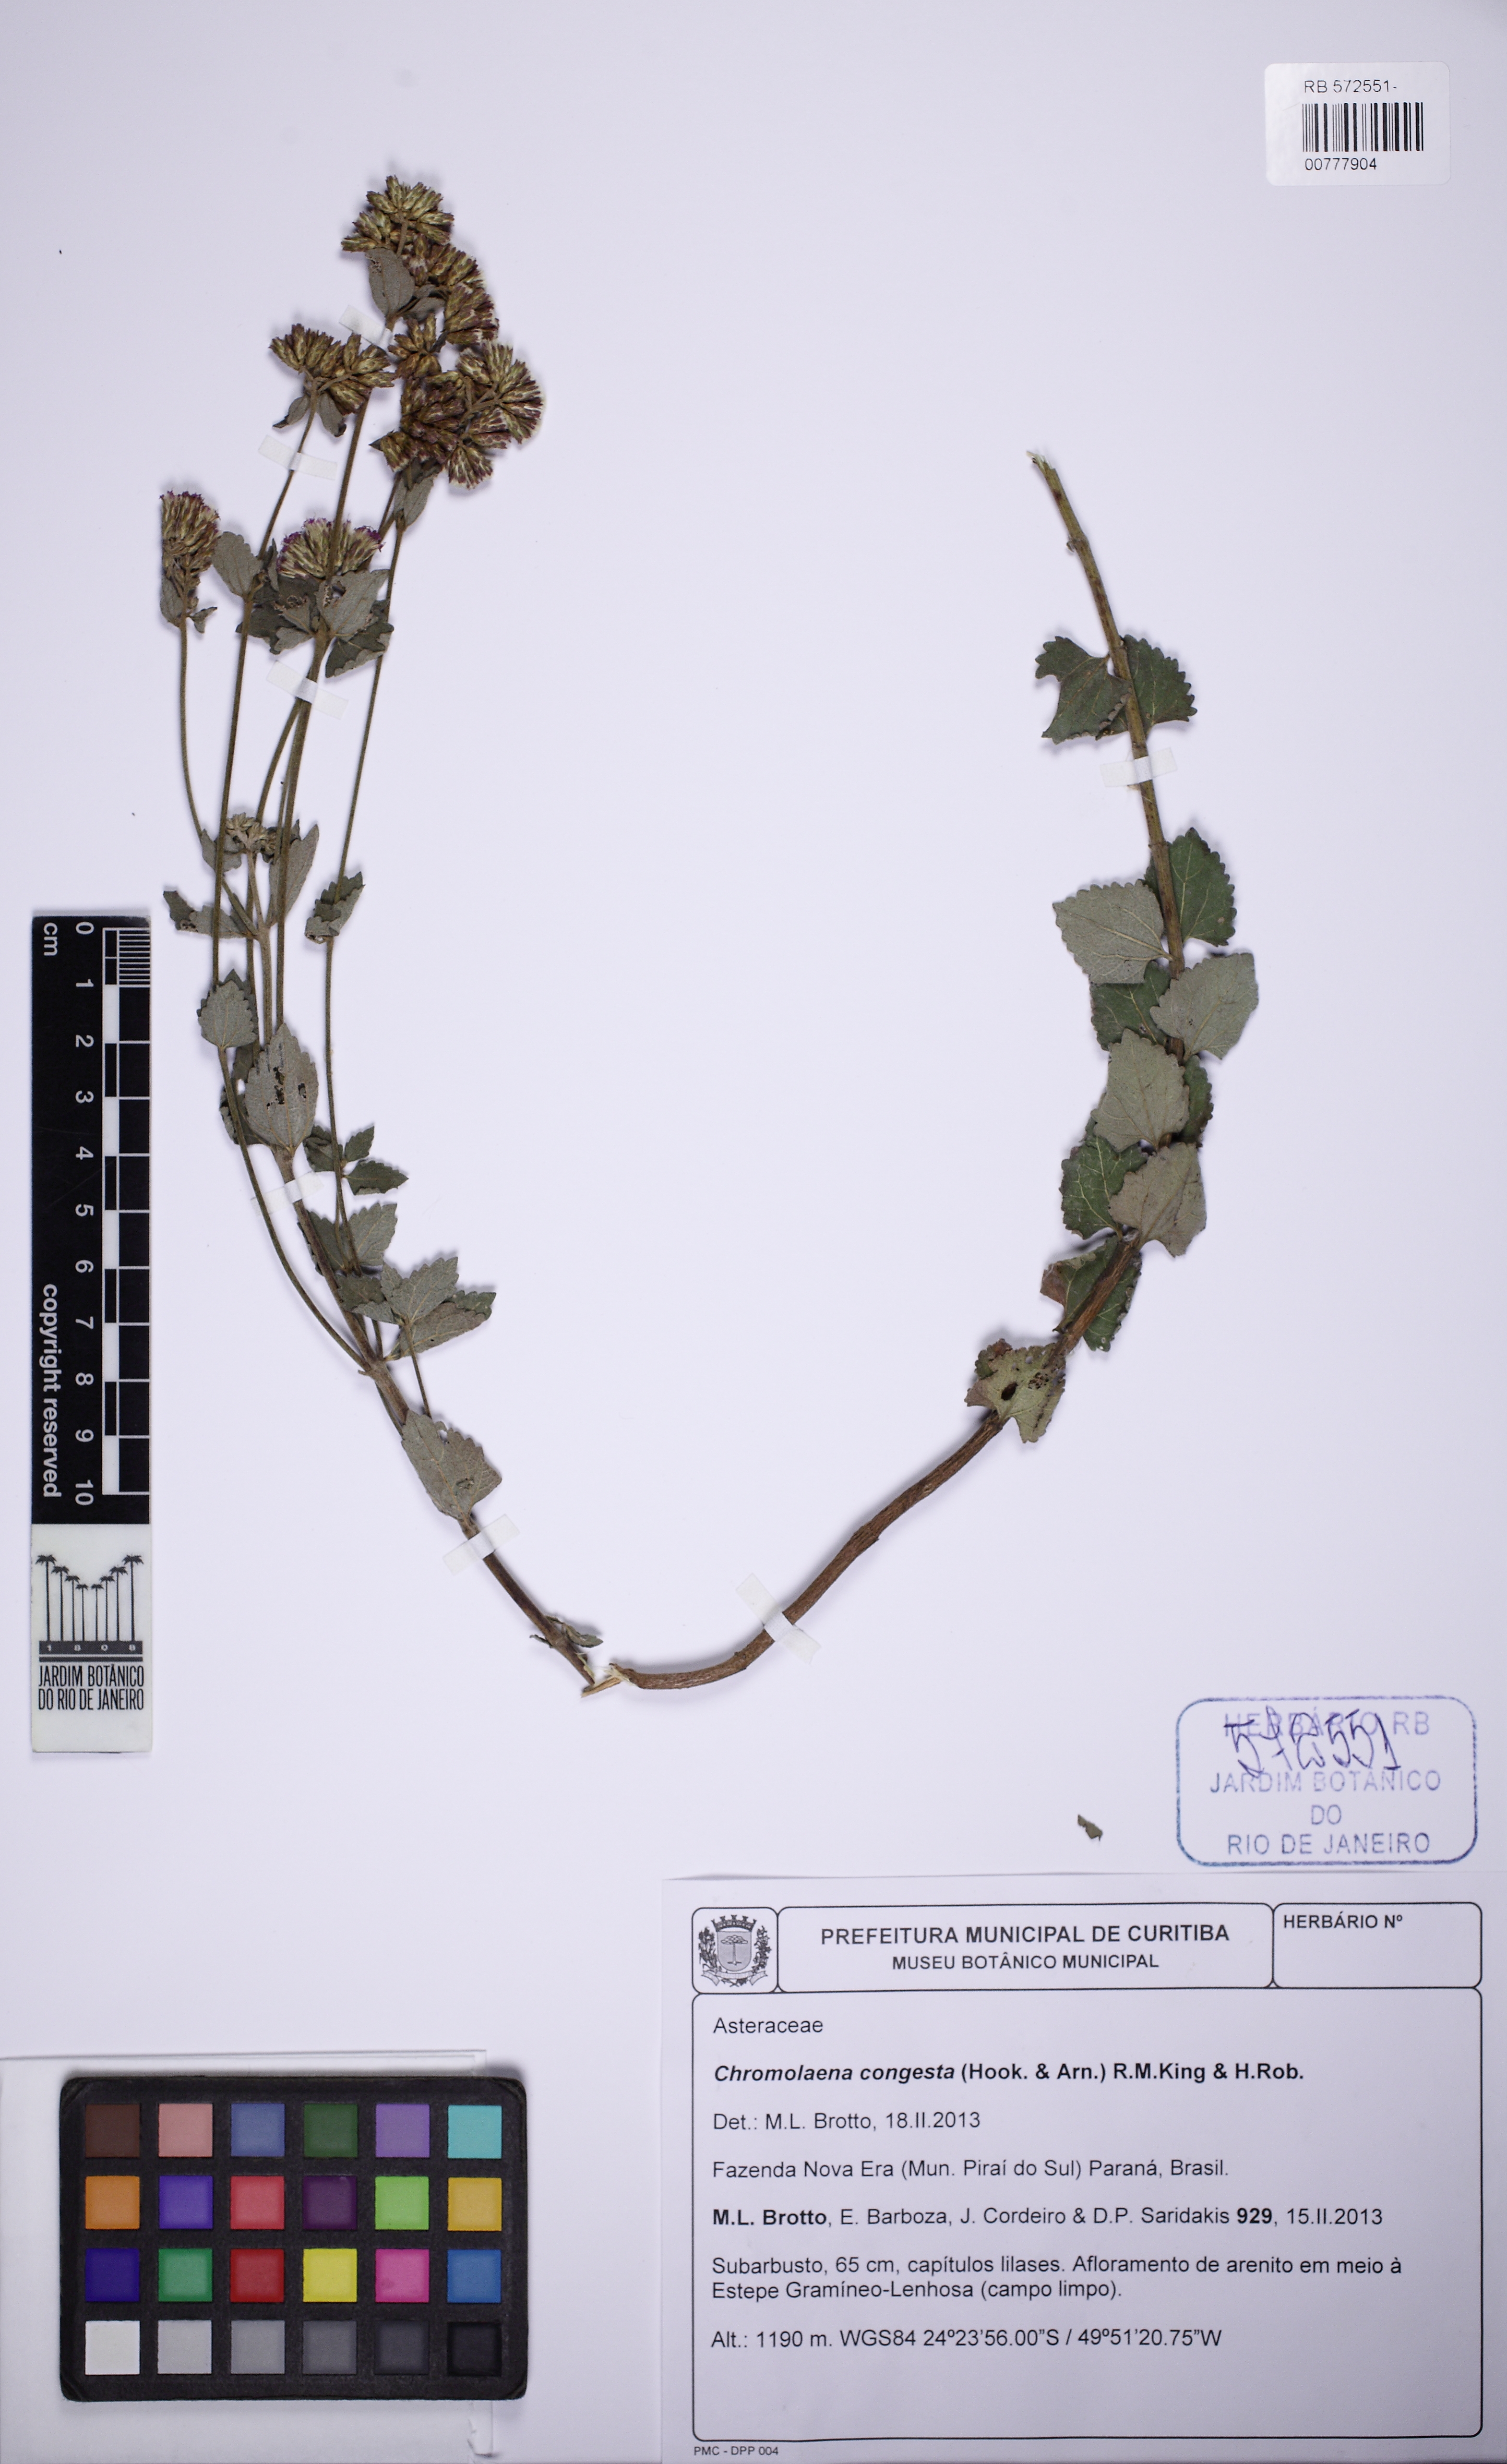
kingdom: Plantae
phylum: Tracheophyta
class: Magnoliopsida
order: Asterales
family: Asteraceae
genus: Chromolaena
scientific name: Chromolaena congesta
